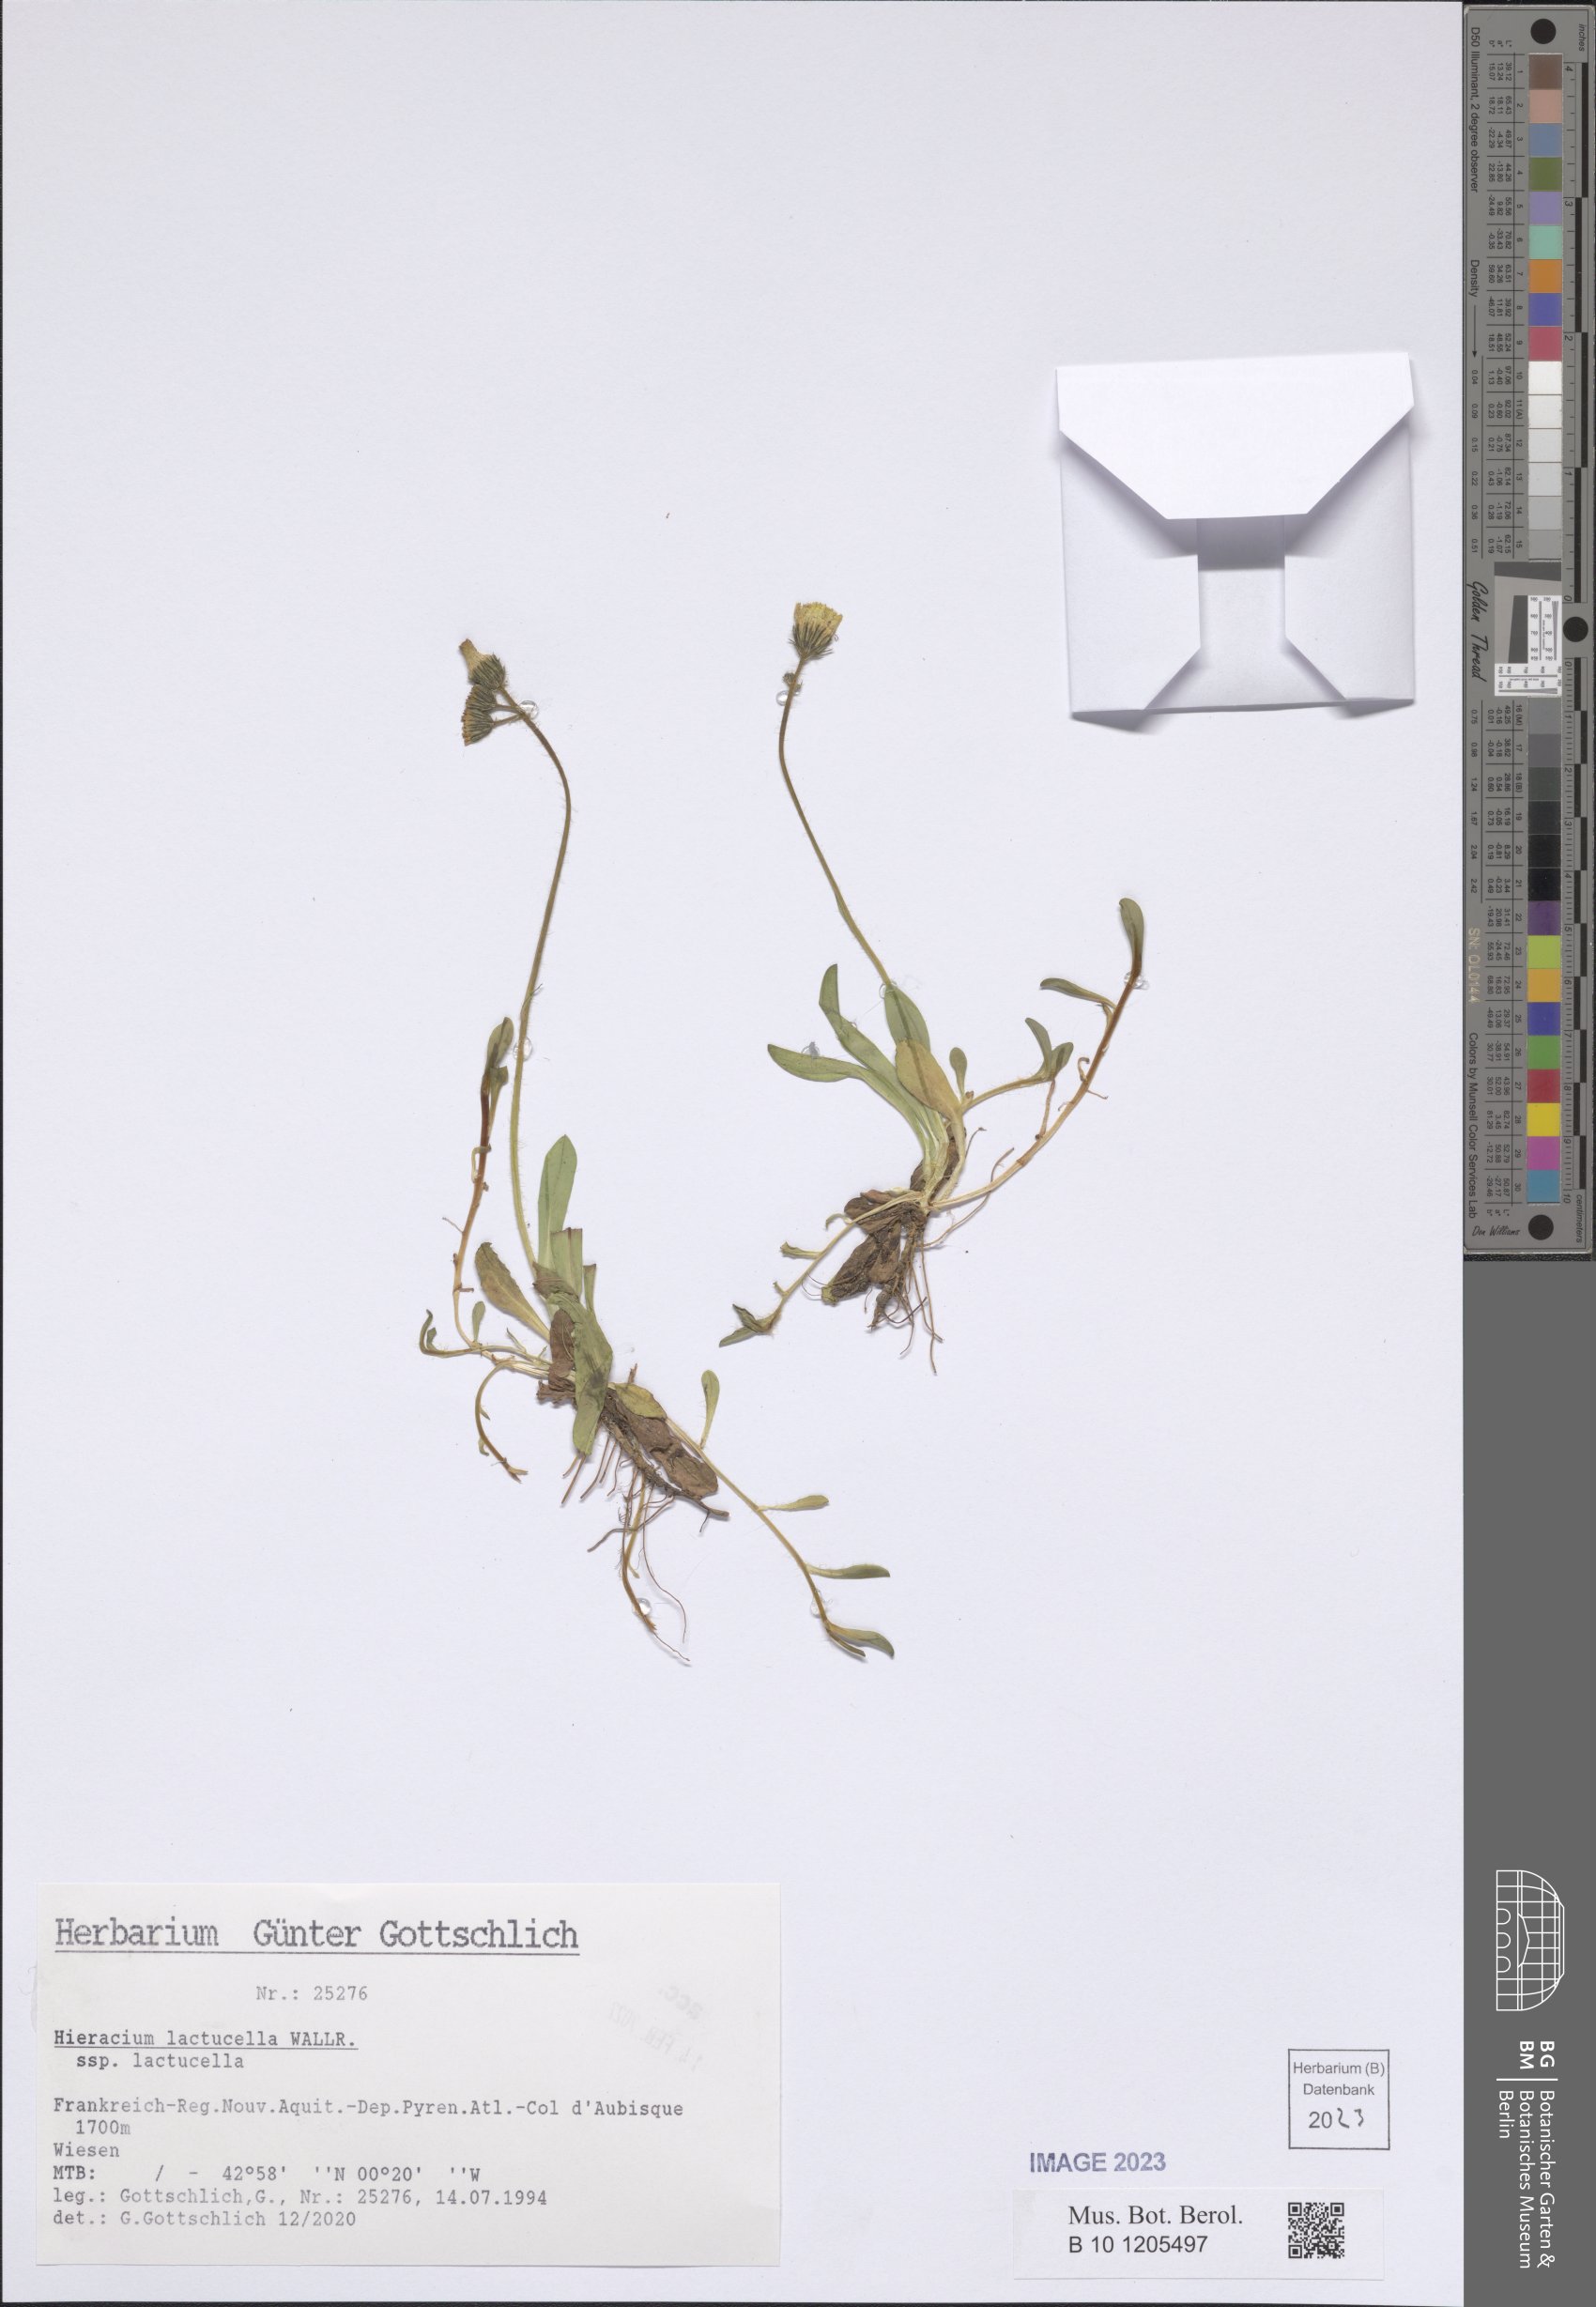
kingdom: Plantae
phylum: Tracheophyta
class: Magnoliopsida
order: Asterales
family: Asteraceae
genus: Pilosella
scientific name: Pilosella lactucella
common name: Glaucous fox-and-cubs
